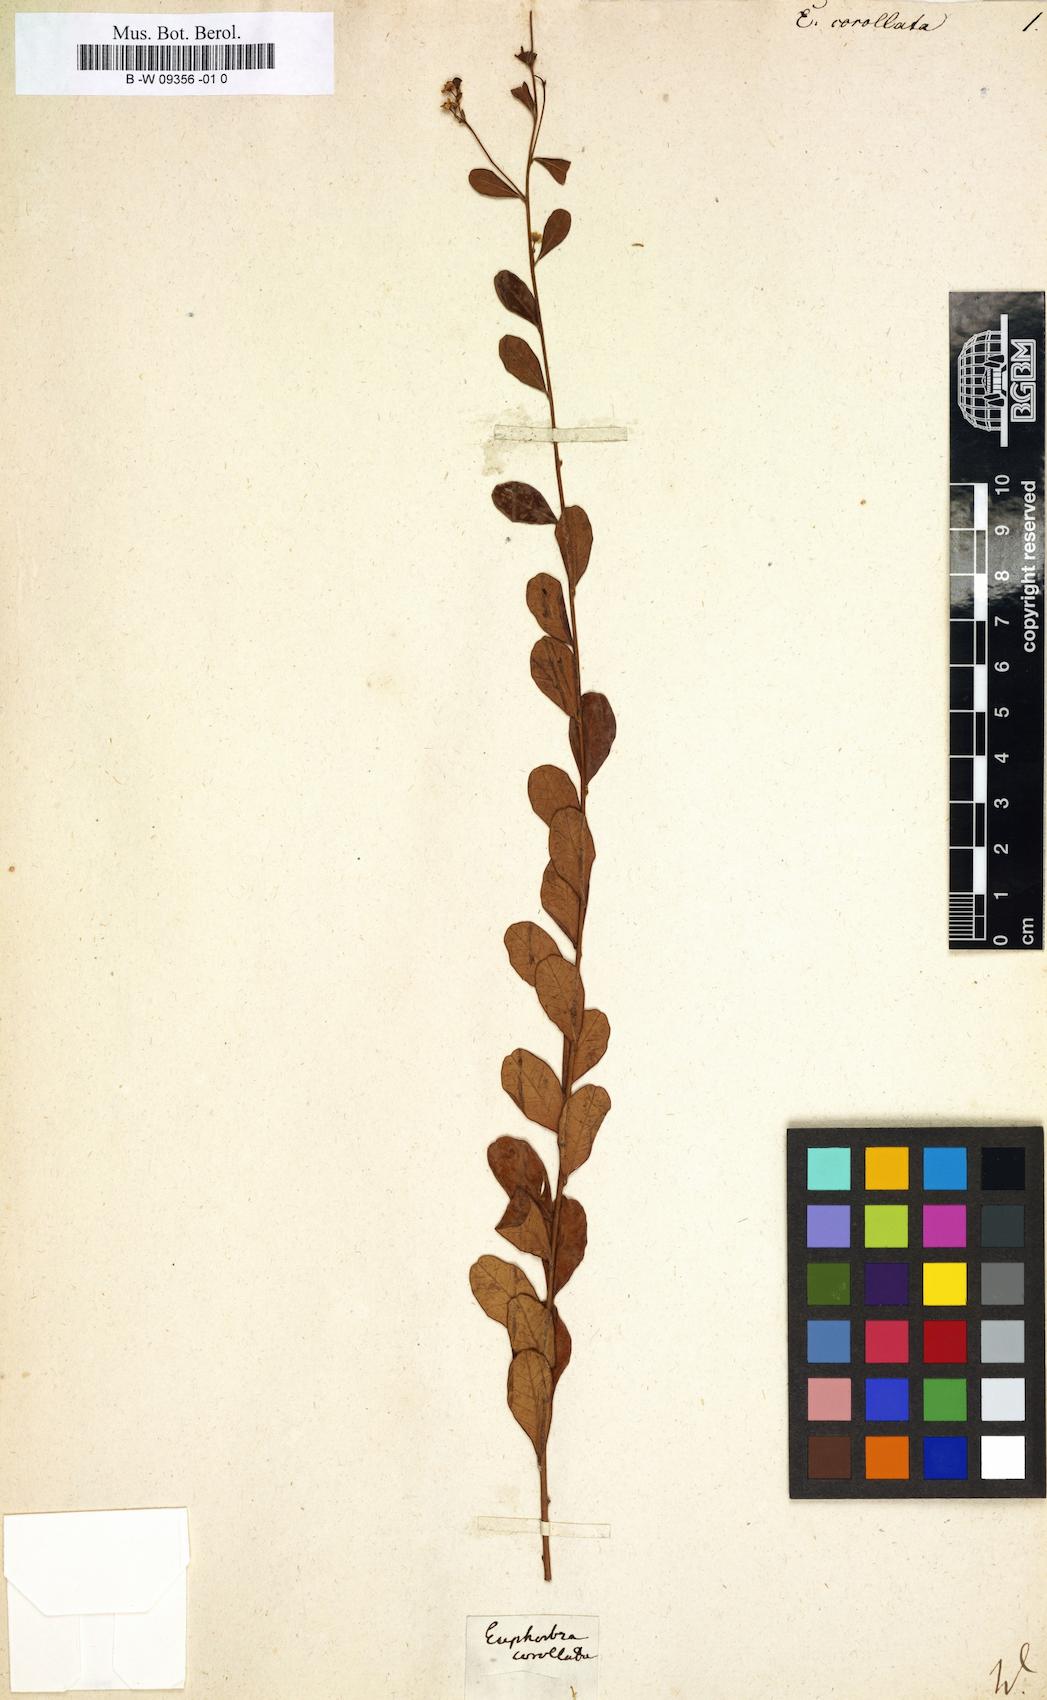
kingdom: Plantae
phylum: Tracheophyta
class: Magnoliopsida
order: Malpighiales
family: Euphorbiaceae
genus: Euphorbia
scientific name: Euphorbia corollata
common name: Flowering spurge
